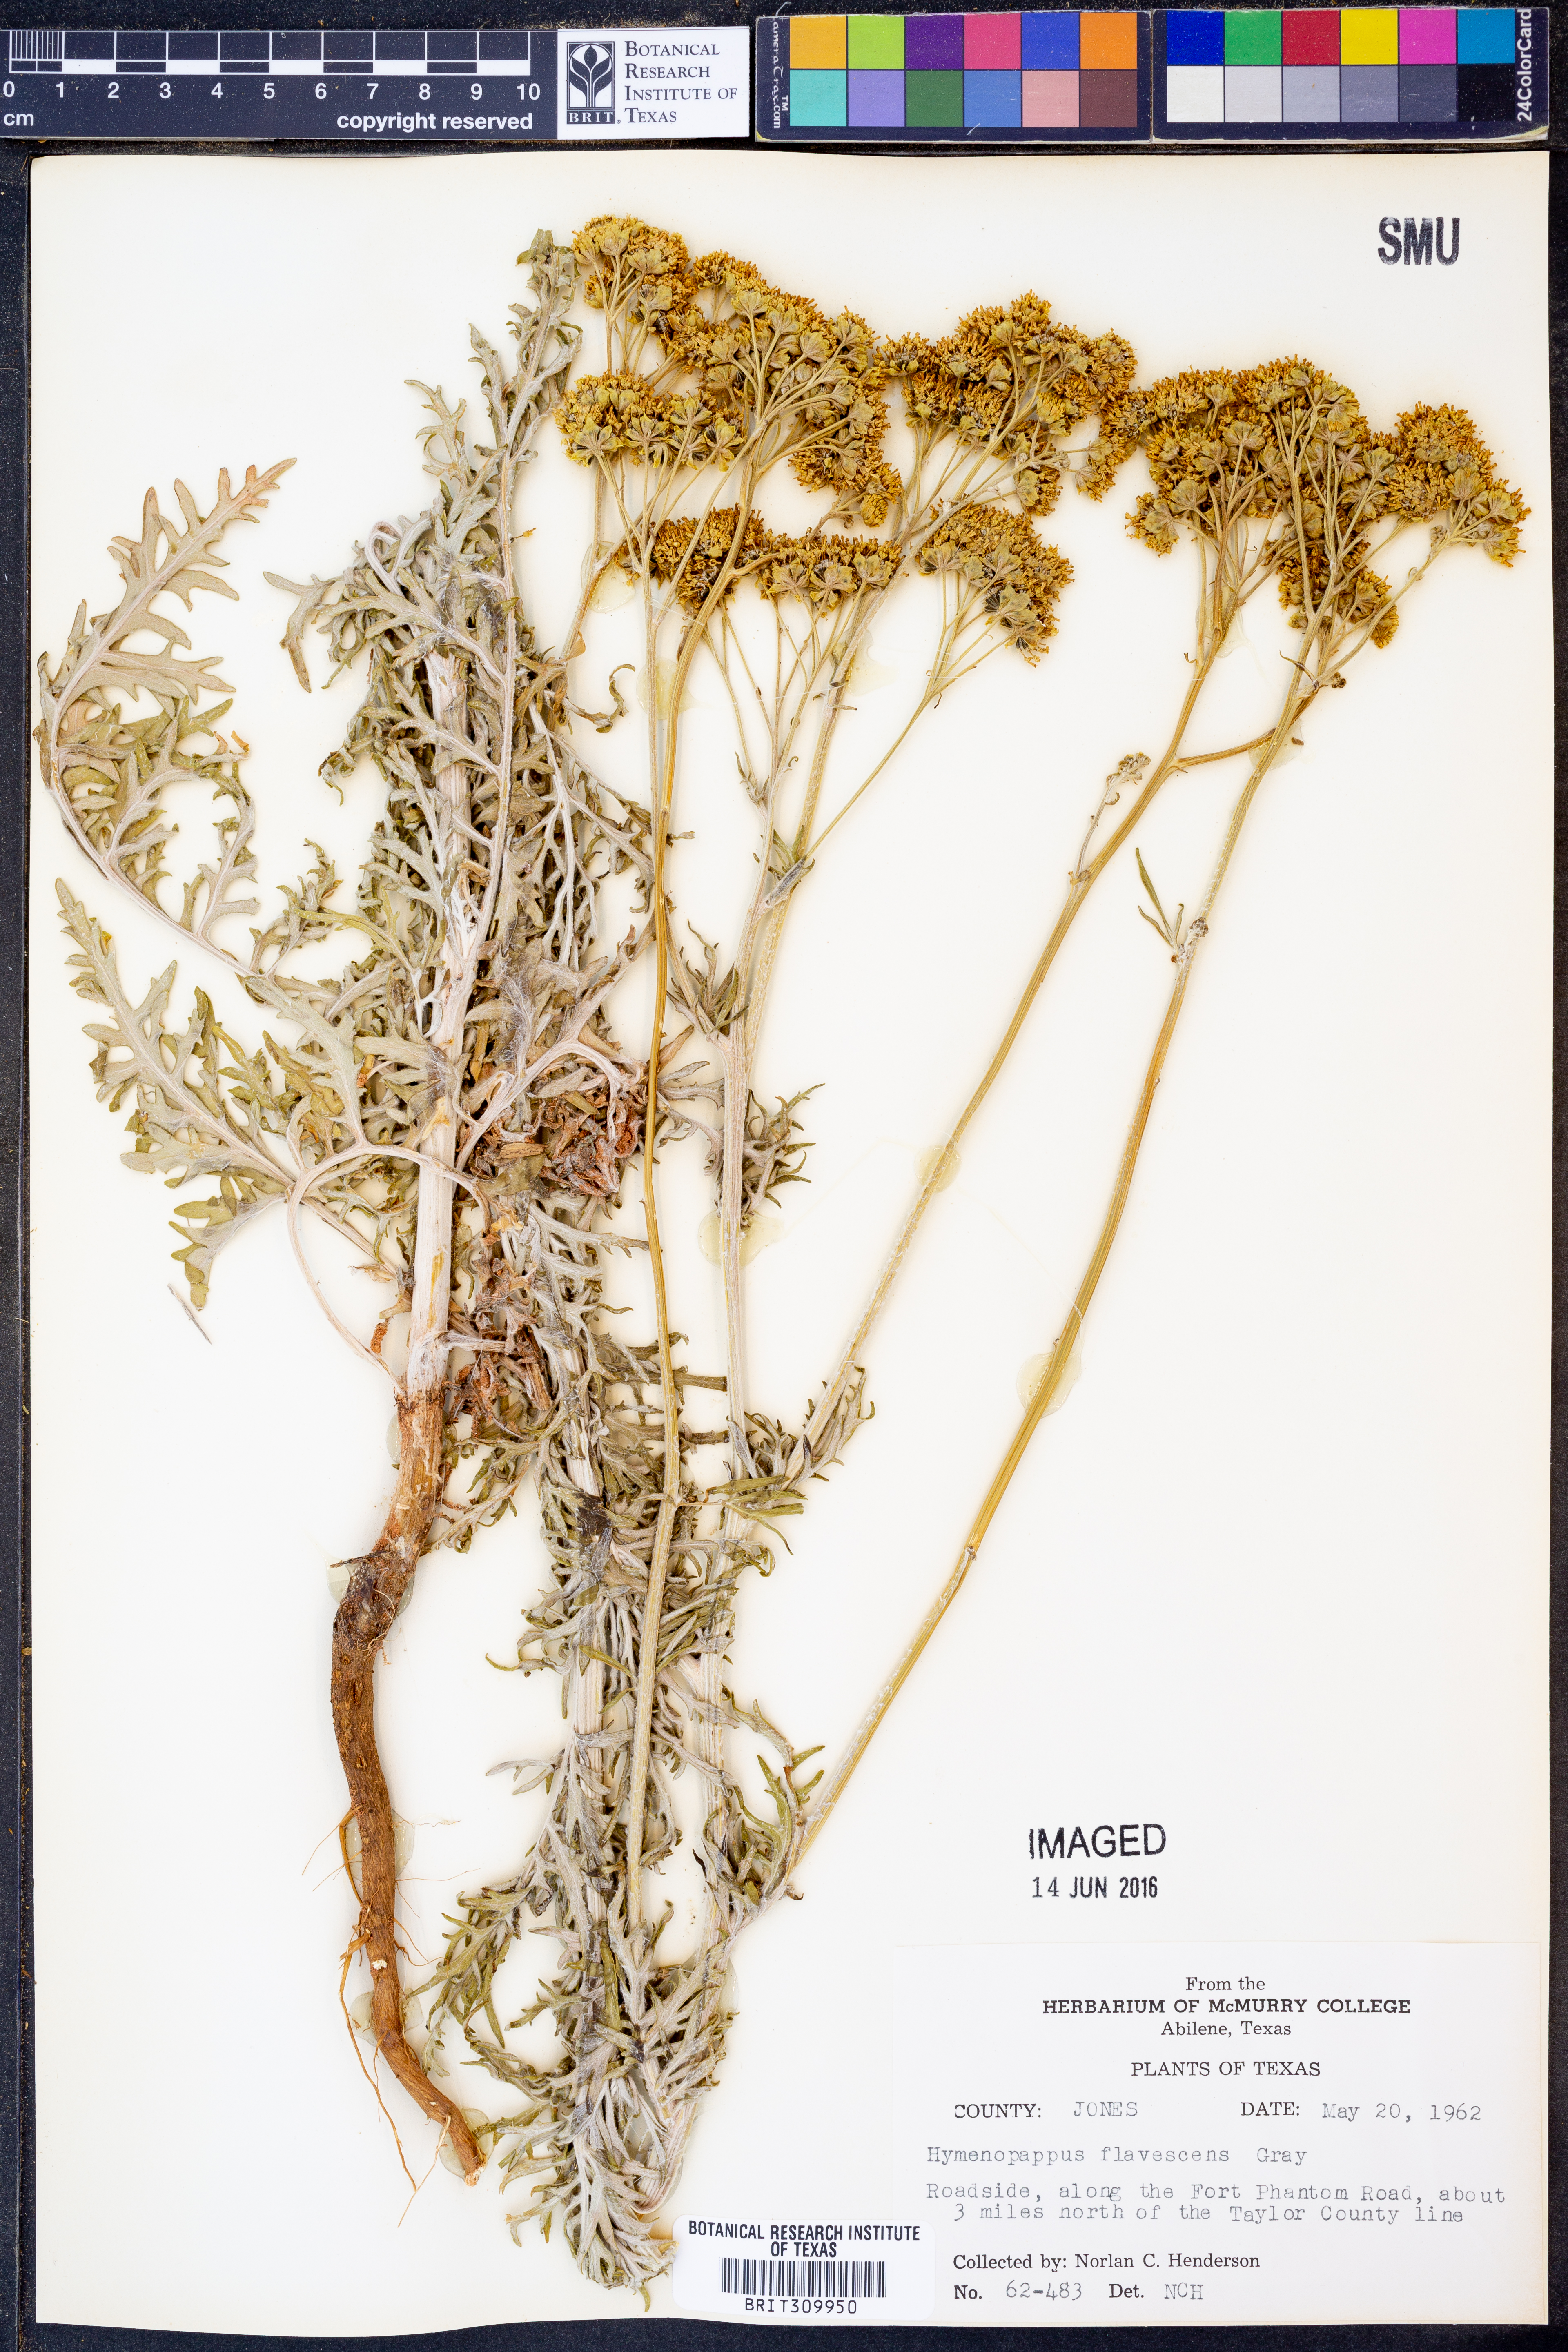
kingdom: Plantae
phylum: Tracheophyta
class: Magnoliopsida
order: Asterales
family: Asteraceae
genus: Hymenopappus
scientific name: Hymenopappus flavescens
